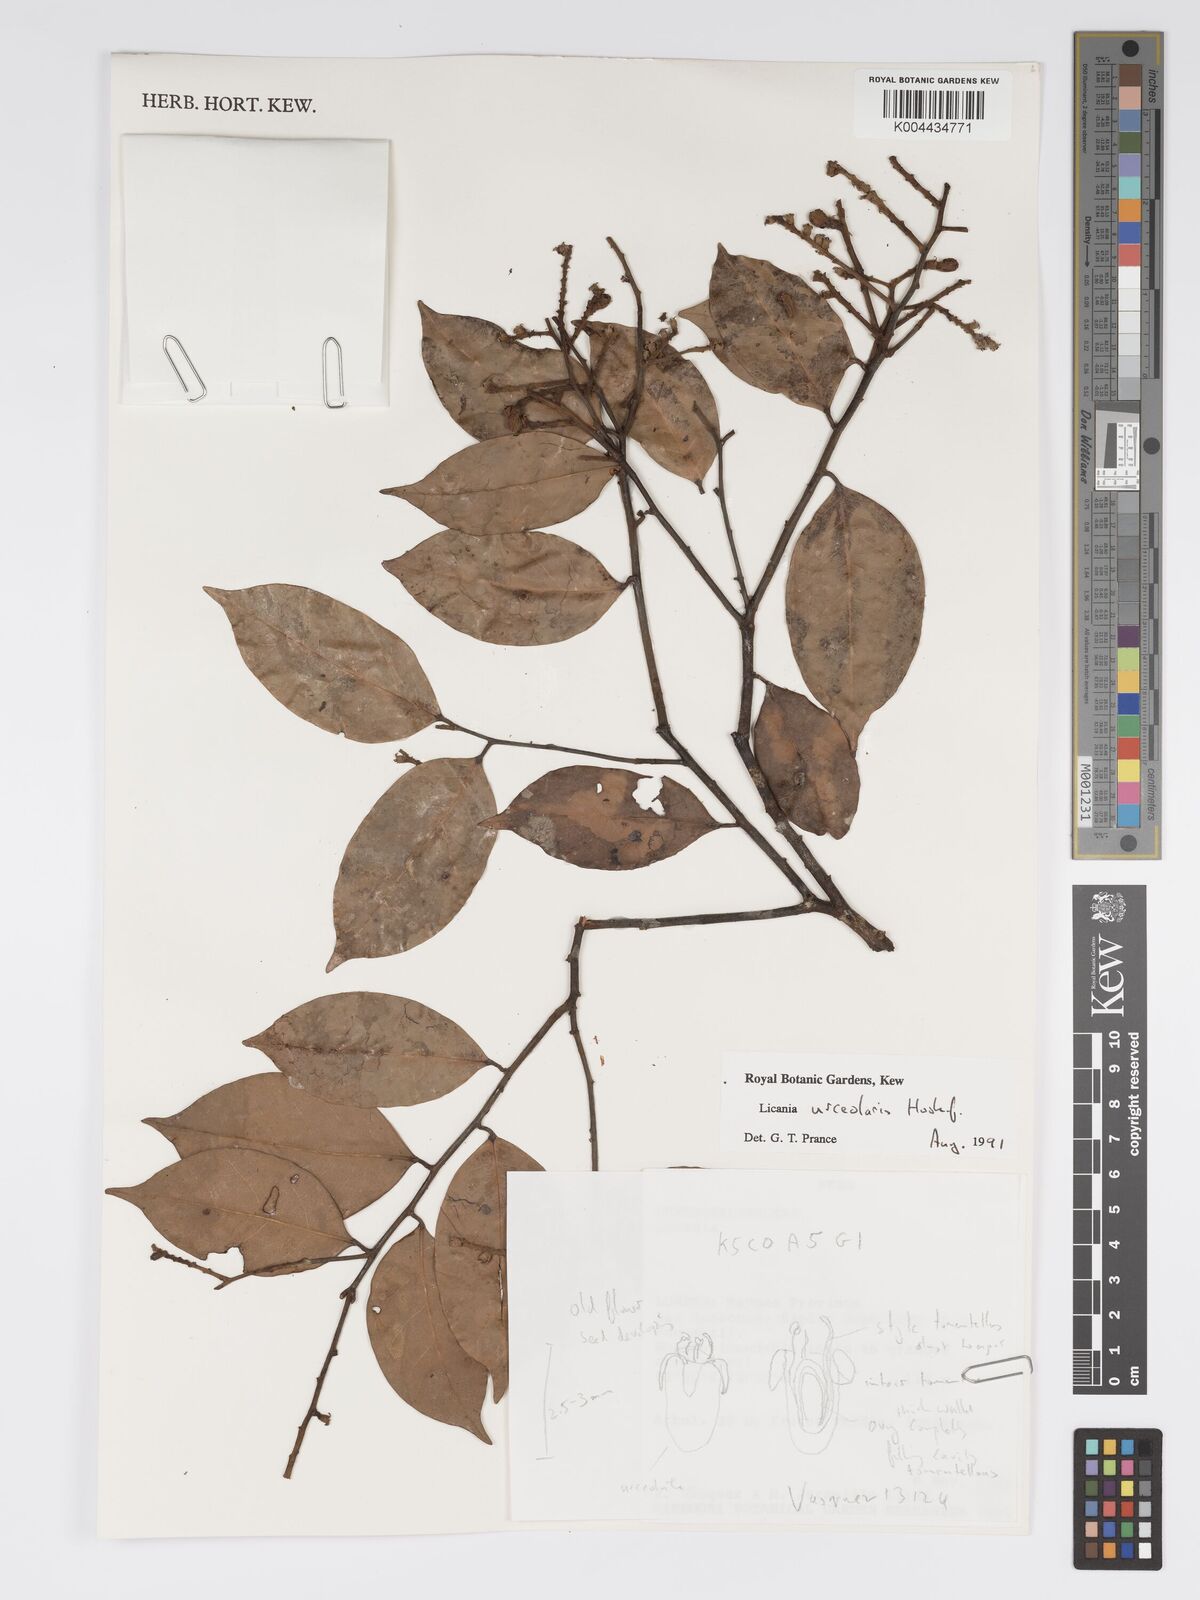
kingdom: Plantae
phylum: Tracheophyta
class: Magnoliopsida
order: Malpighiales
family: Chrysobalanaceae
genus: Licania
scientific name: Licania urceolaris
